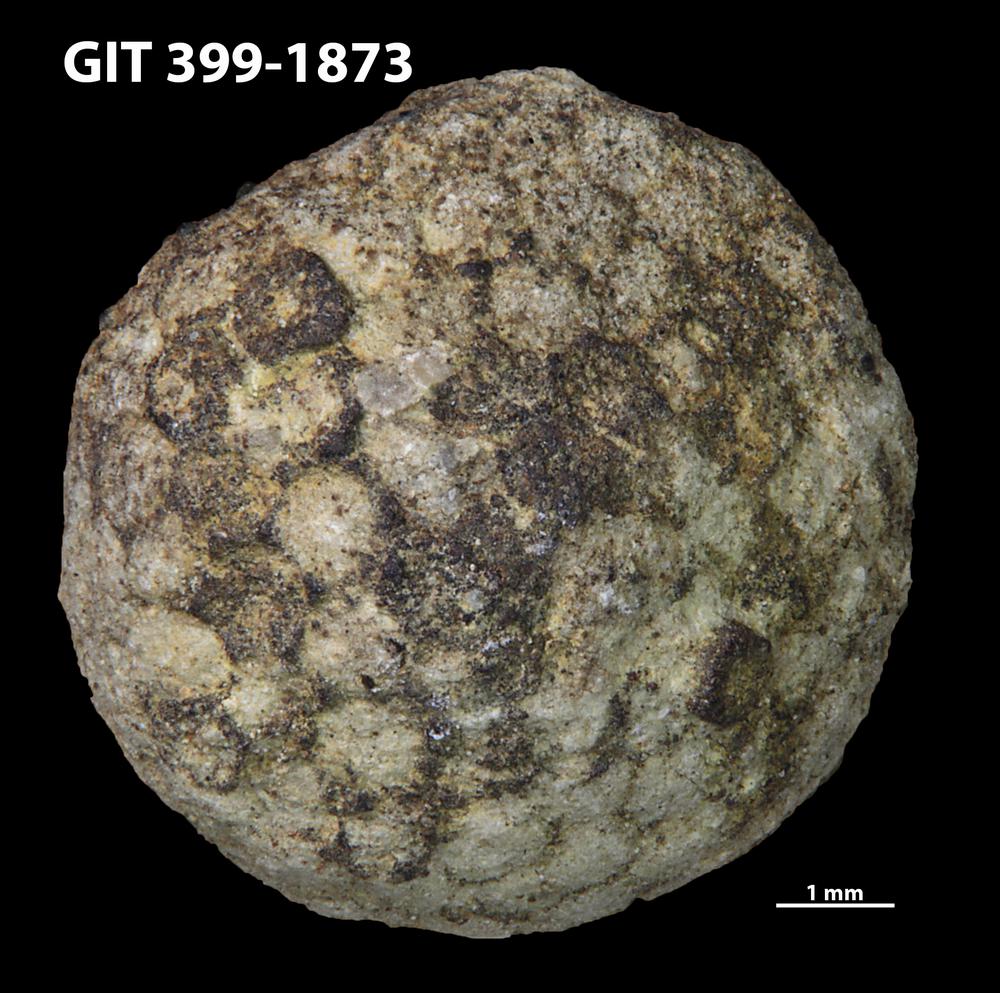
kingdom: Plantae
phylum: Chlorophyta
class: Ulvophyceae
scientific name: Ulvophyceae
